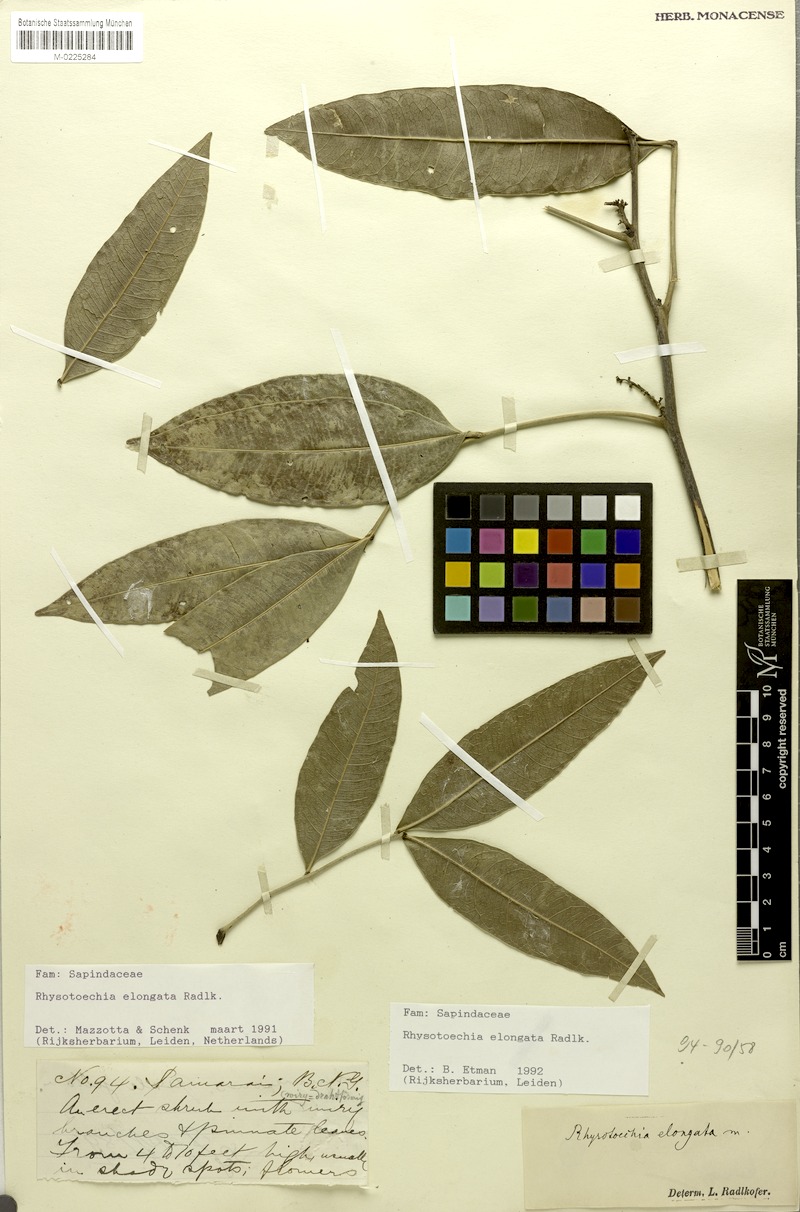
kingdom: Plantae
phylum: Tracheophyta
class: Magnoliopsida
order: Sapindales
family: Sapindaceae
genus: Rhysotoechia
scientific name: Rhysotoechia elongata
